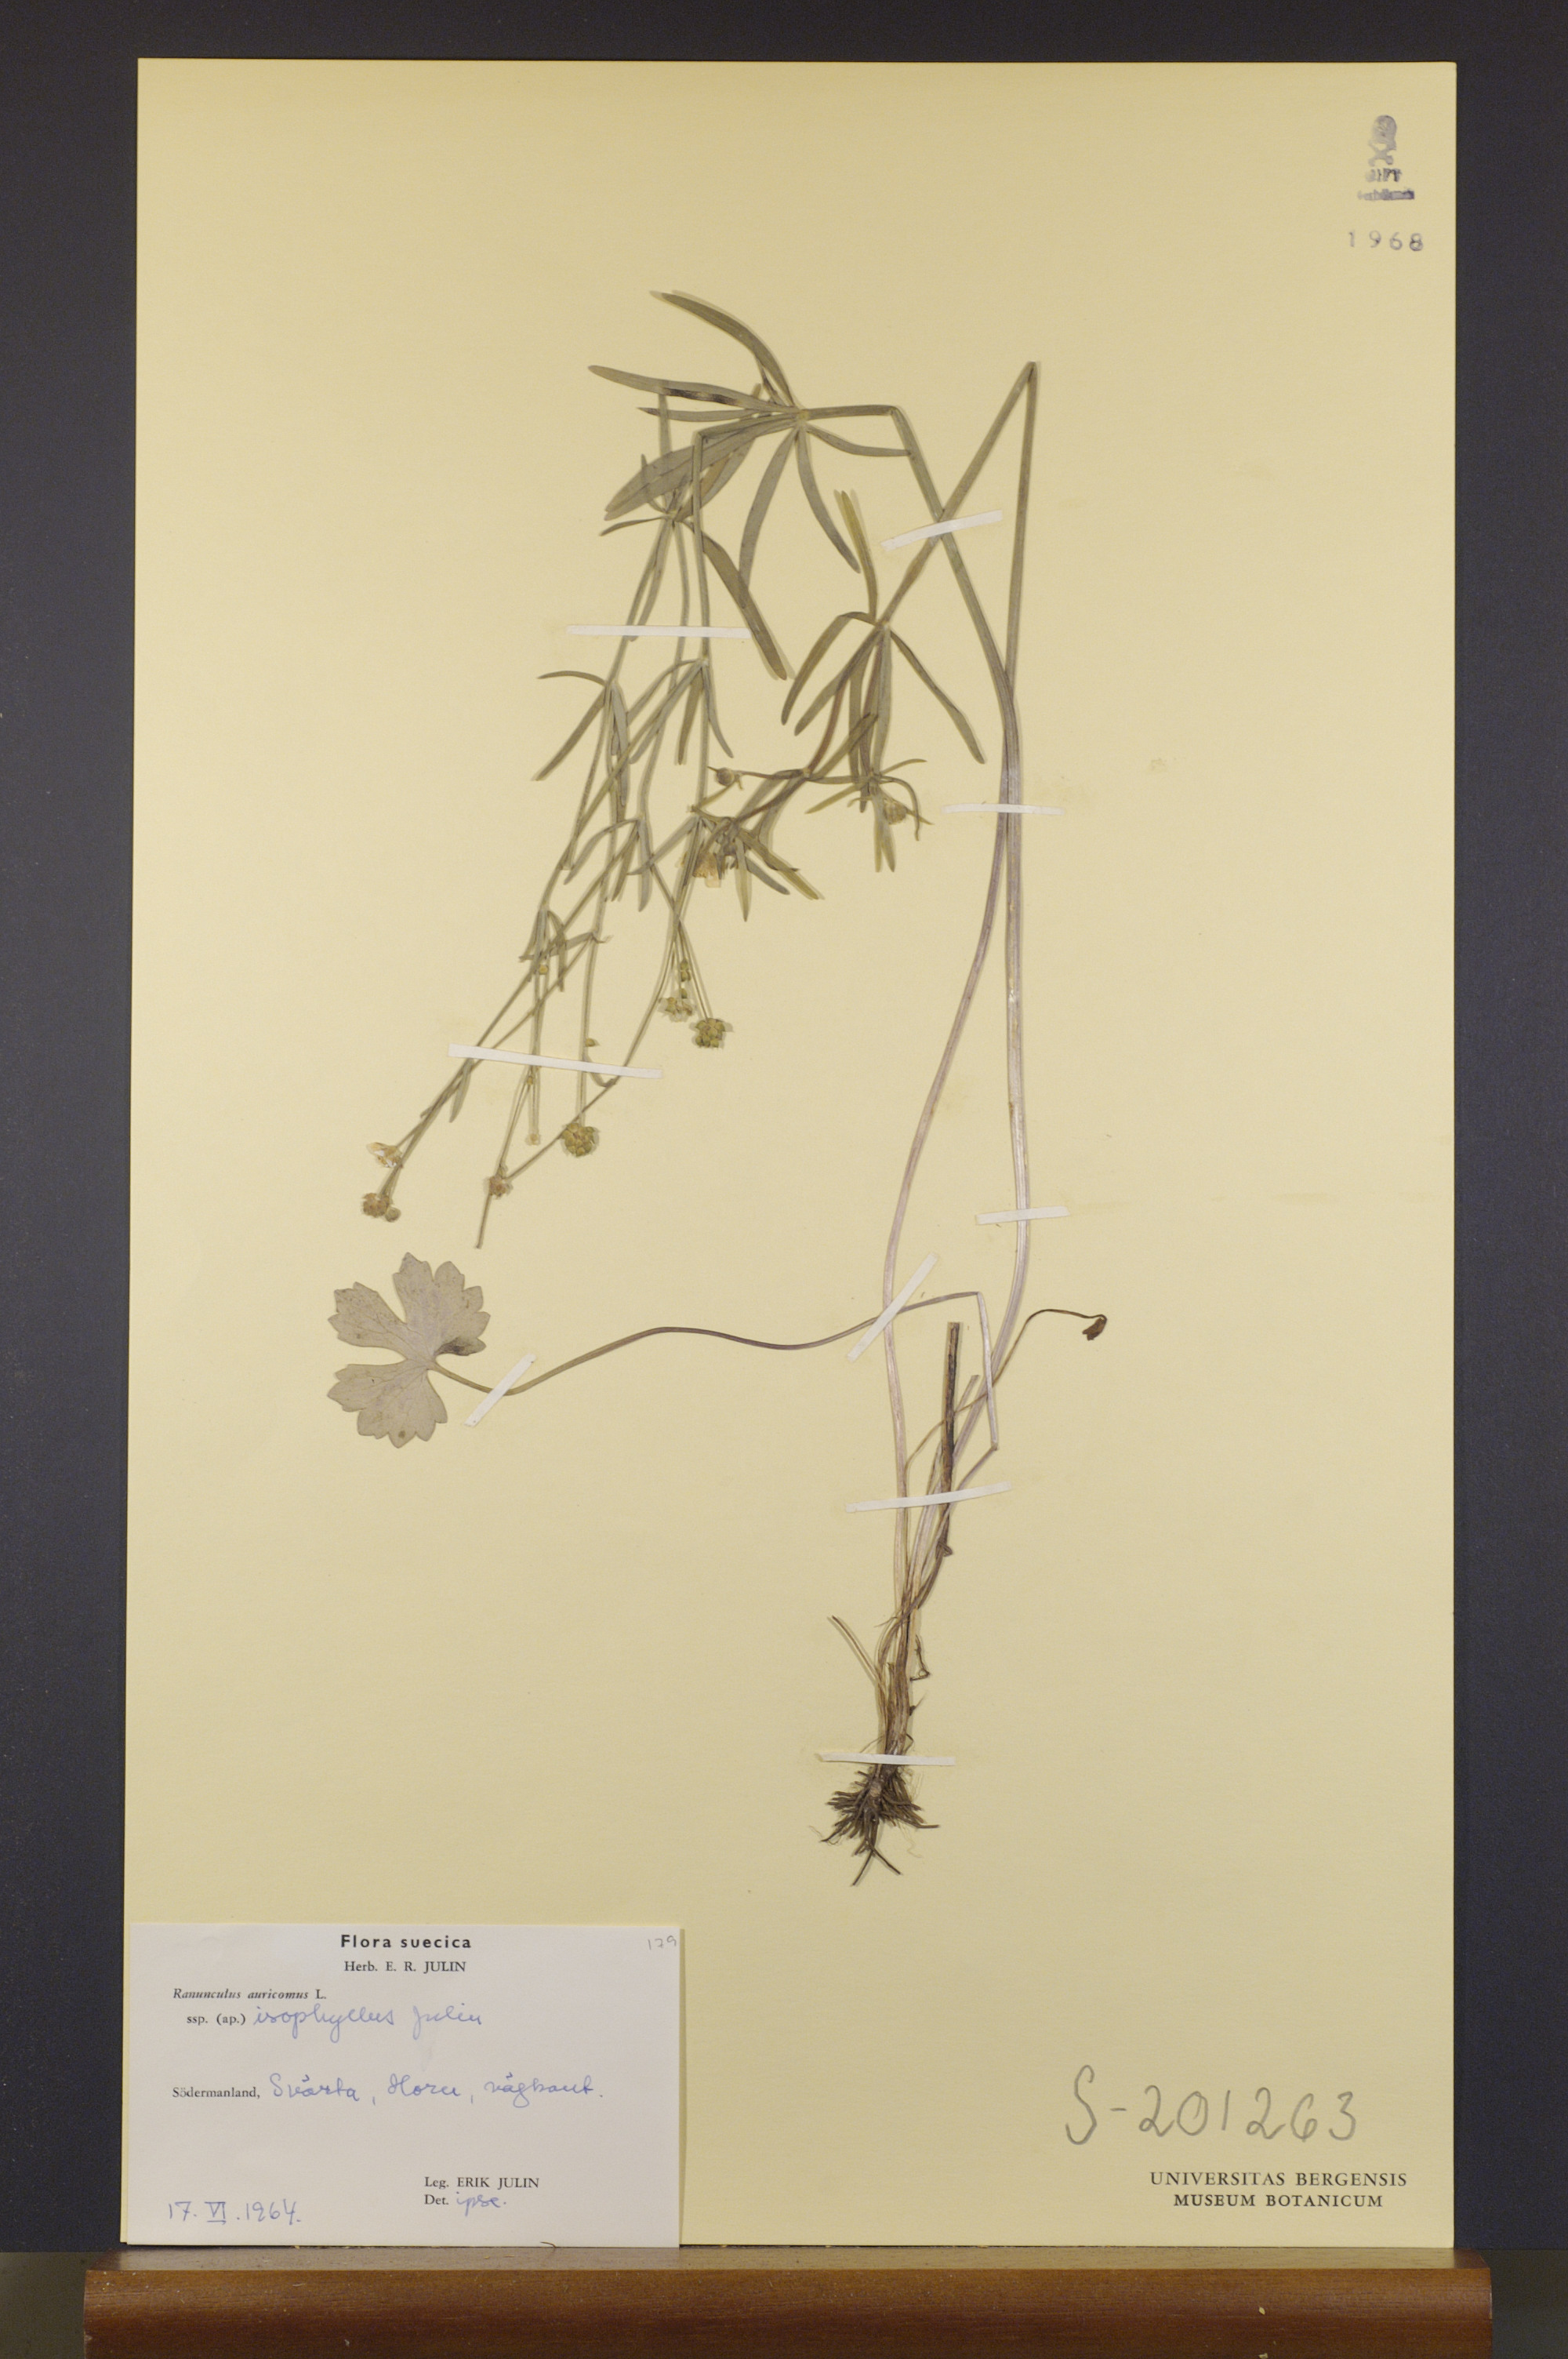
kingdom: Plantae
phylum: Tracheophyta
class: Magnoliopsida
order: Ranunculales
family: Ranunculaceae
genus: Ranunculus
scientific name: Ranunculus isophyllus
